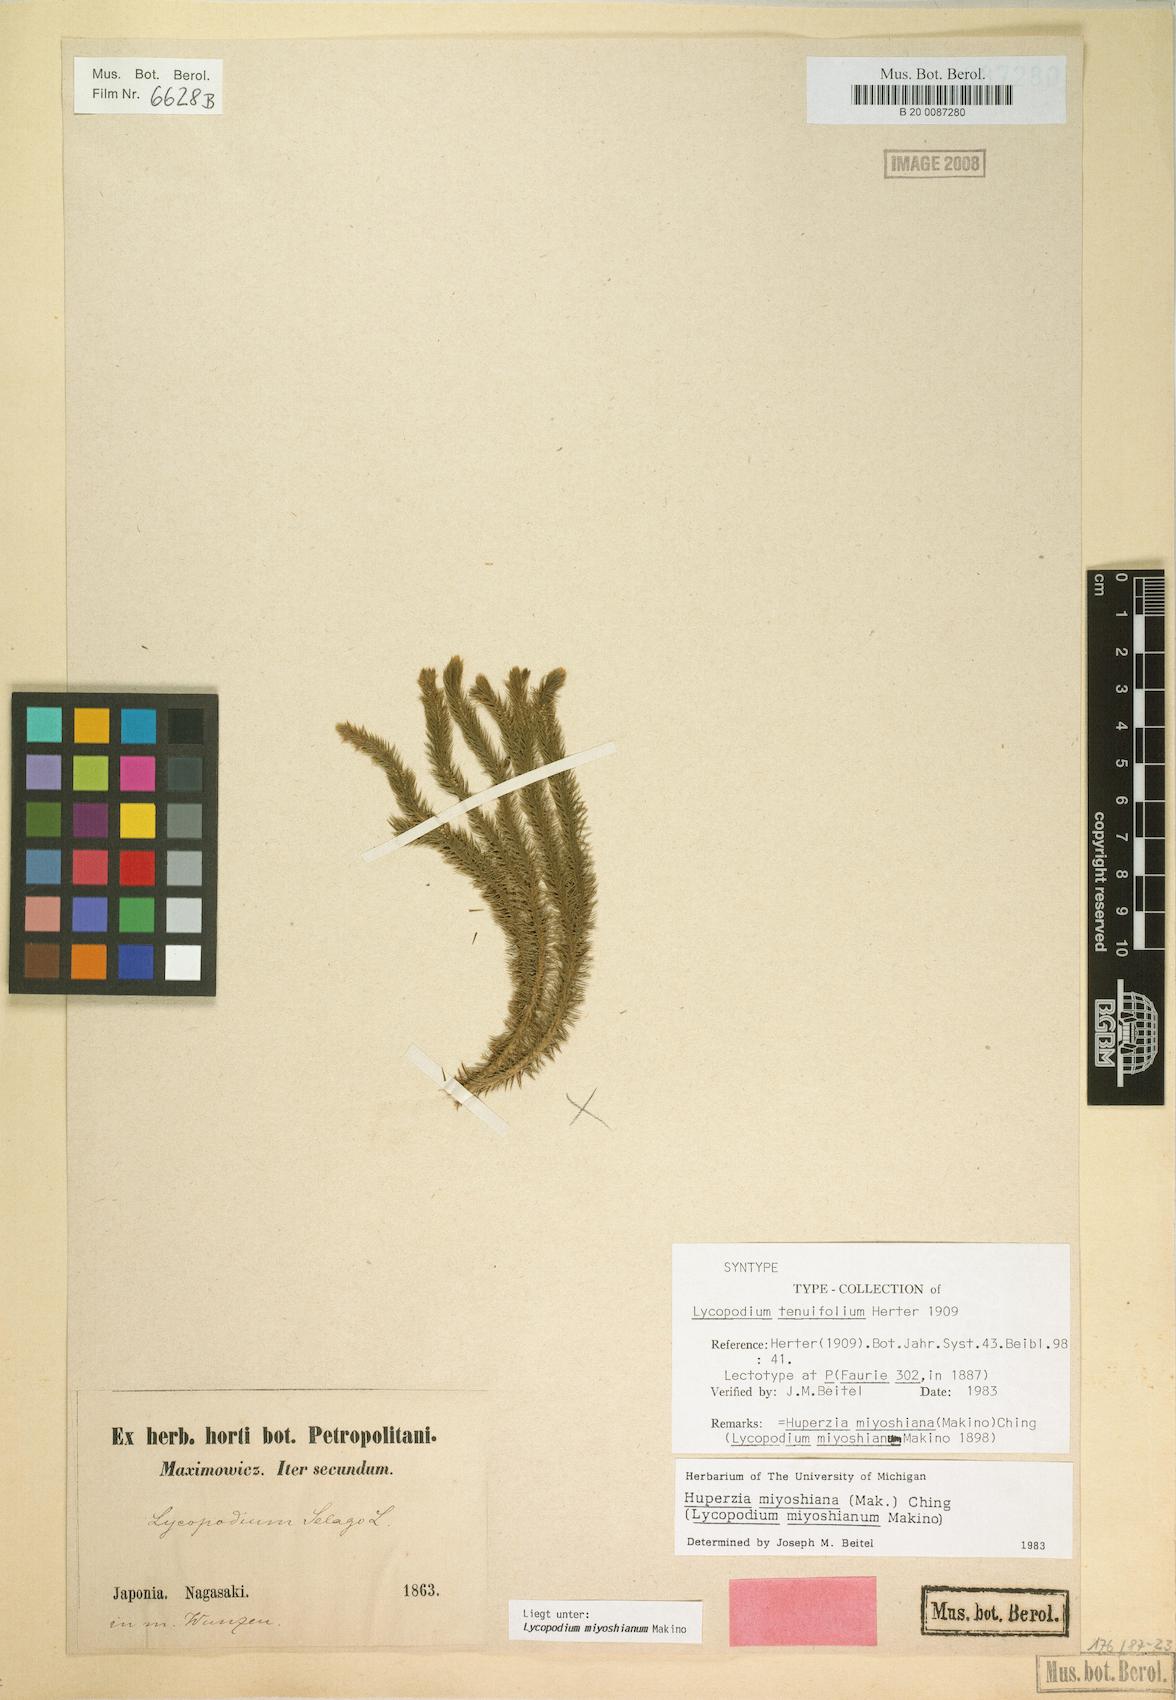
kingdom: Plantae
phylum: Tracheophyta
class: Lycopodiopsida
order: Lycopodiales
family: Lycopodiaceae
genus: Huperzia
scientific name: Huperzia miyoshiana
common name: Chinese clubmoss
